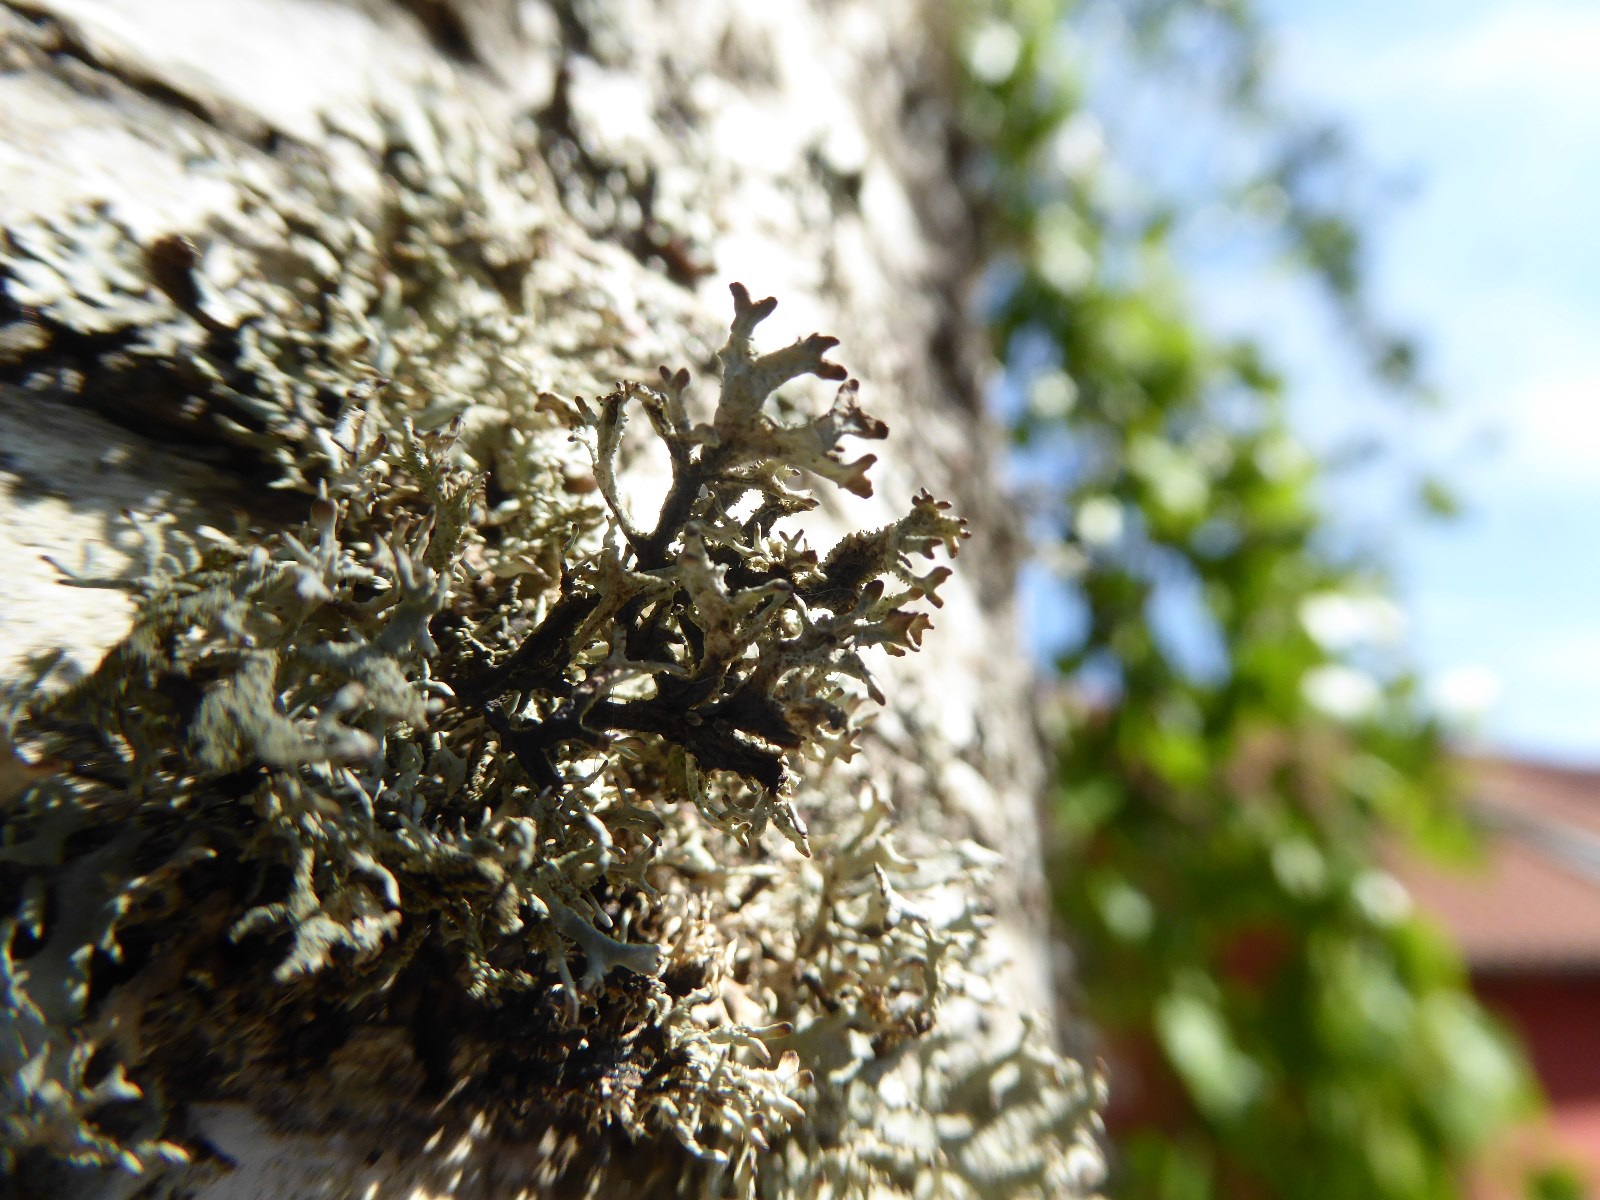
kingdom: Fungi
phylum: Ascomycota
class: Lecanoromycetes
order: Lecanorales
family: Parmeliaceae
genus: Pseudevernia
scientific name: Pseudevernia furfuracea
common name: grå fyrrelav
